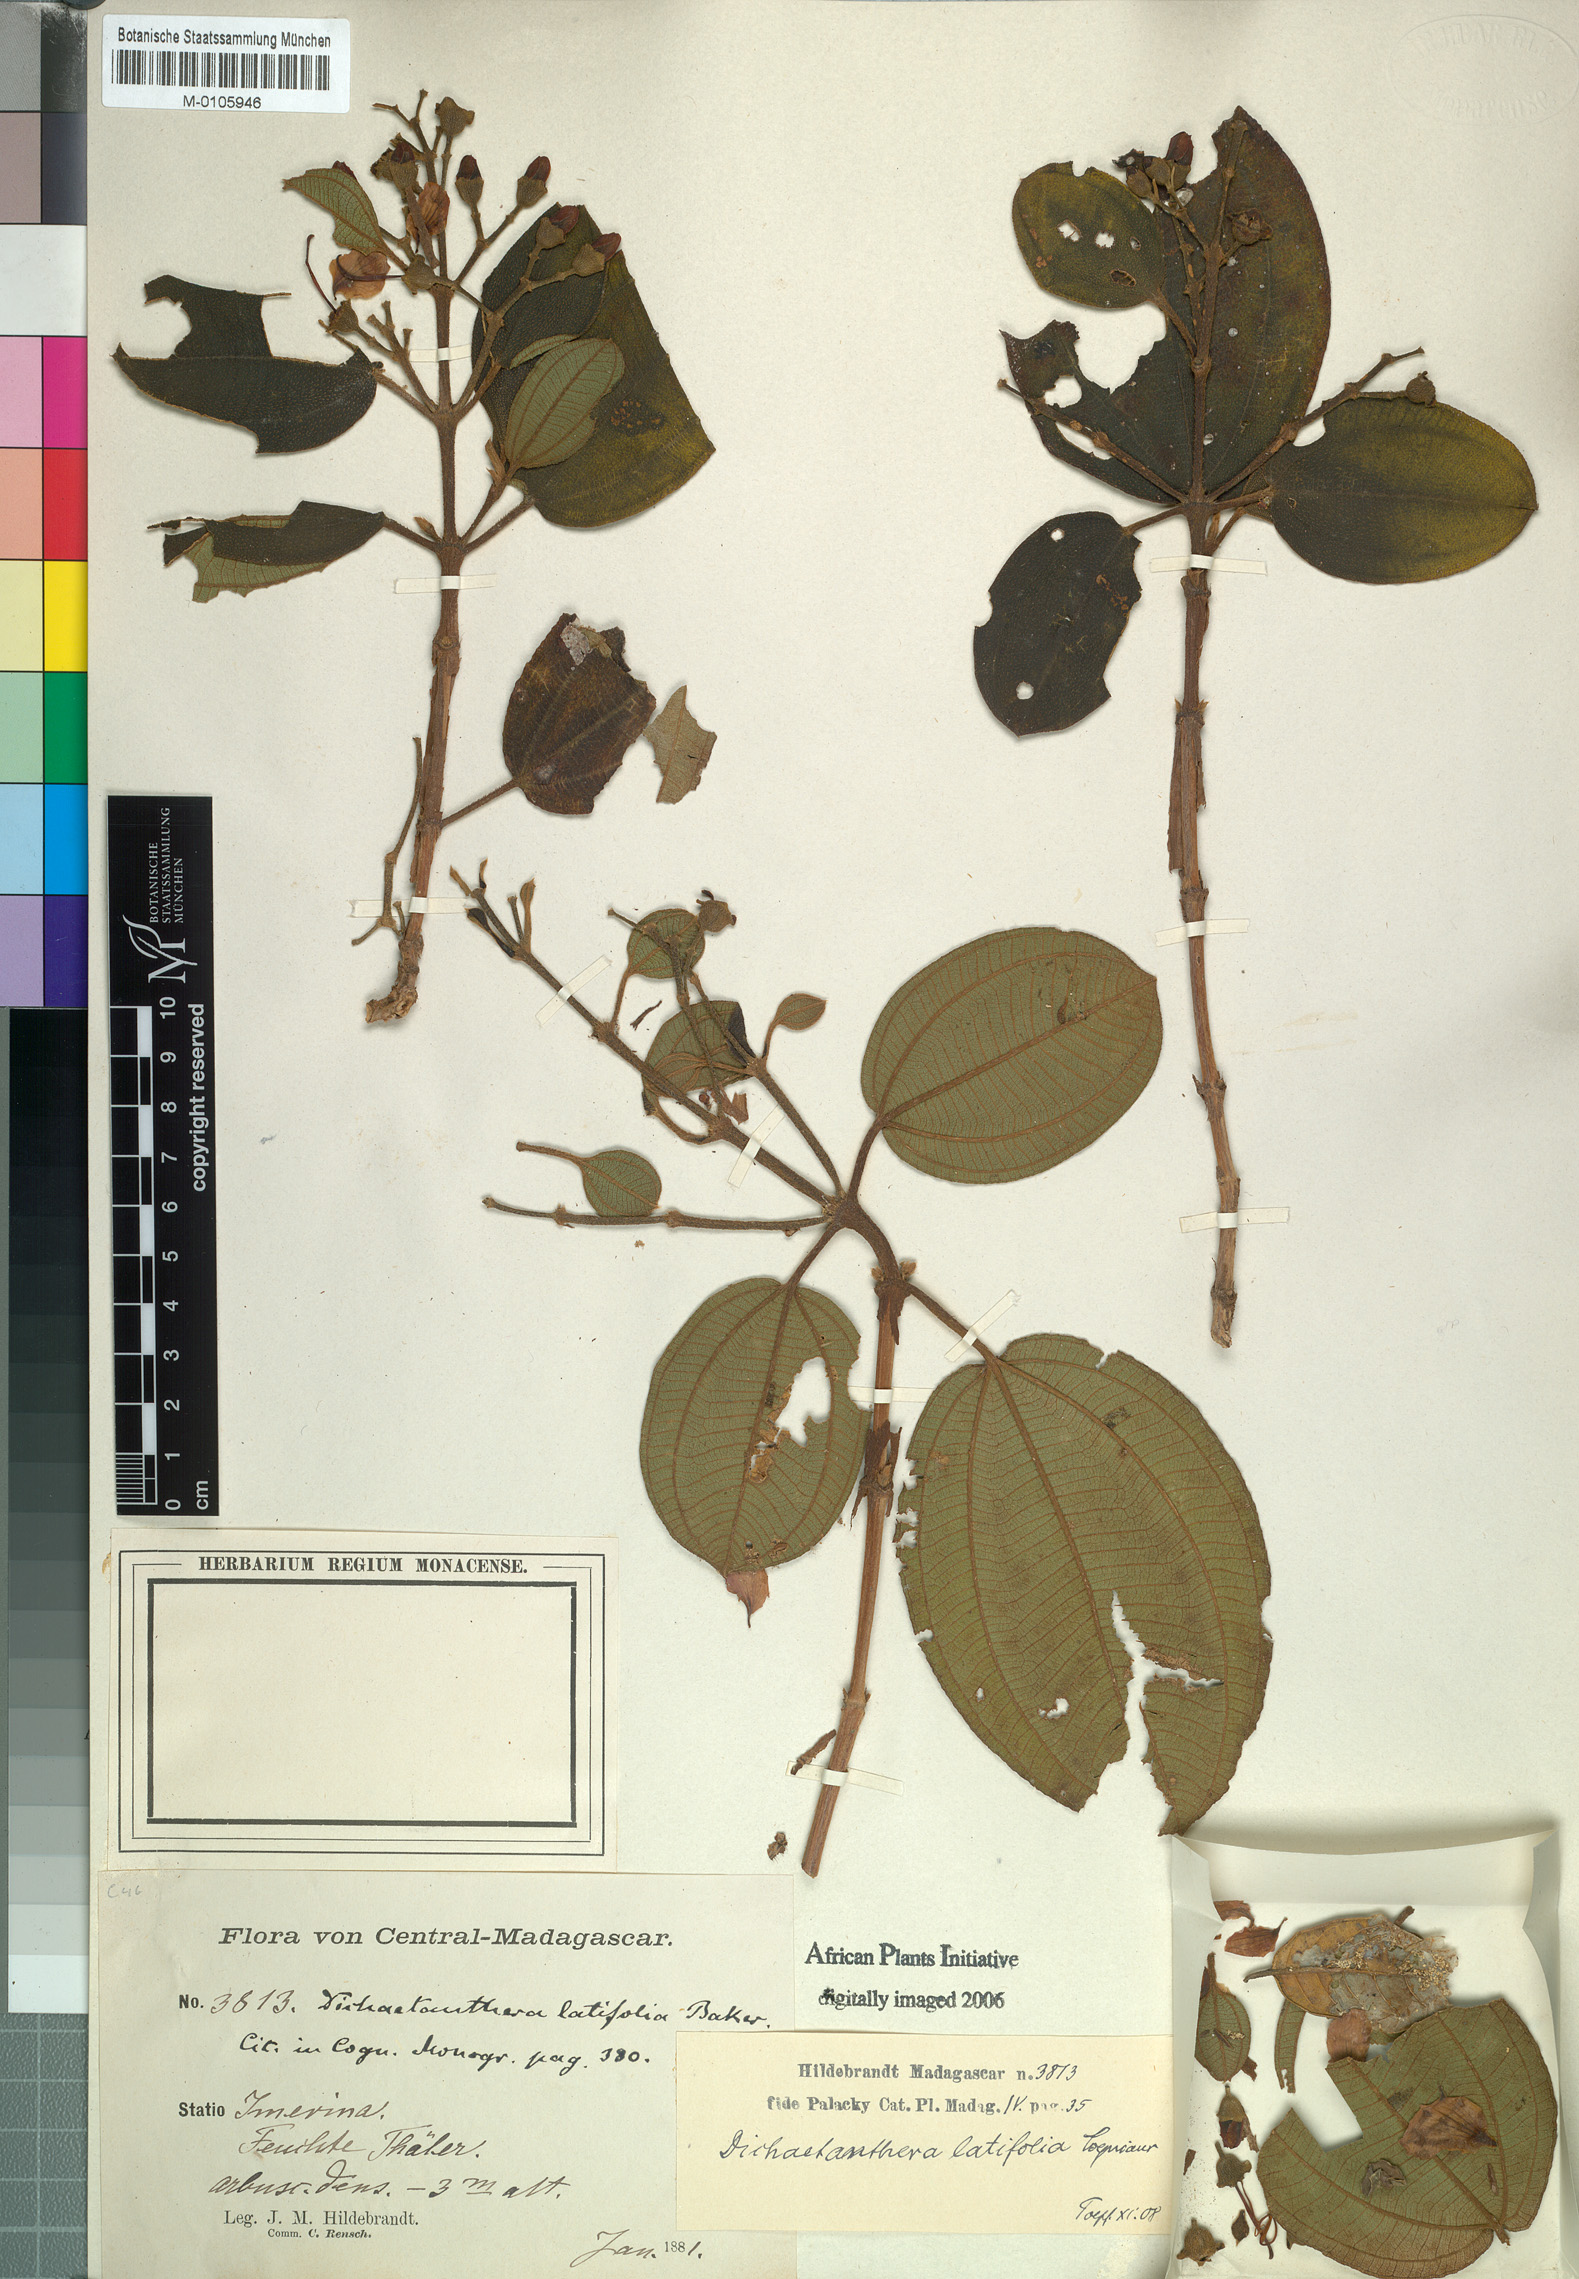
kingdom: Plantae
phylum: Tracheophyta
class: Magnoliopsida
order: Myrtales
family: Melastomataceae
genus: Dichaetanthera
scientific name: Dichaetanthera cordifolia
